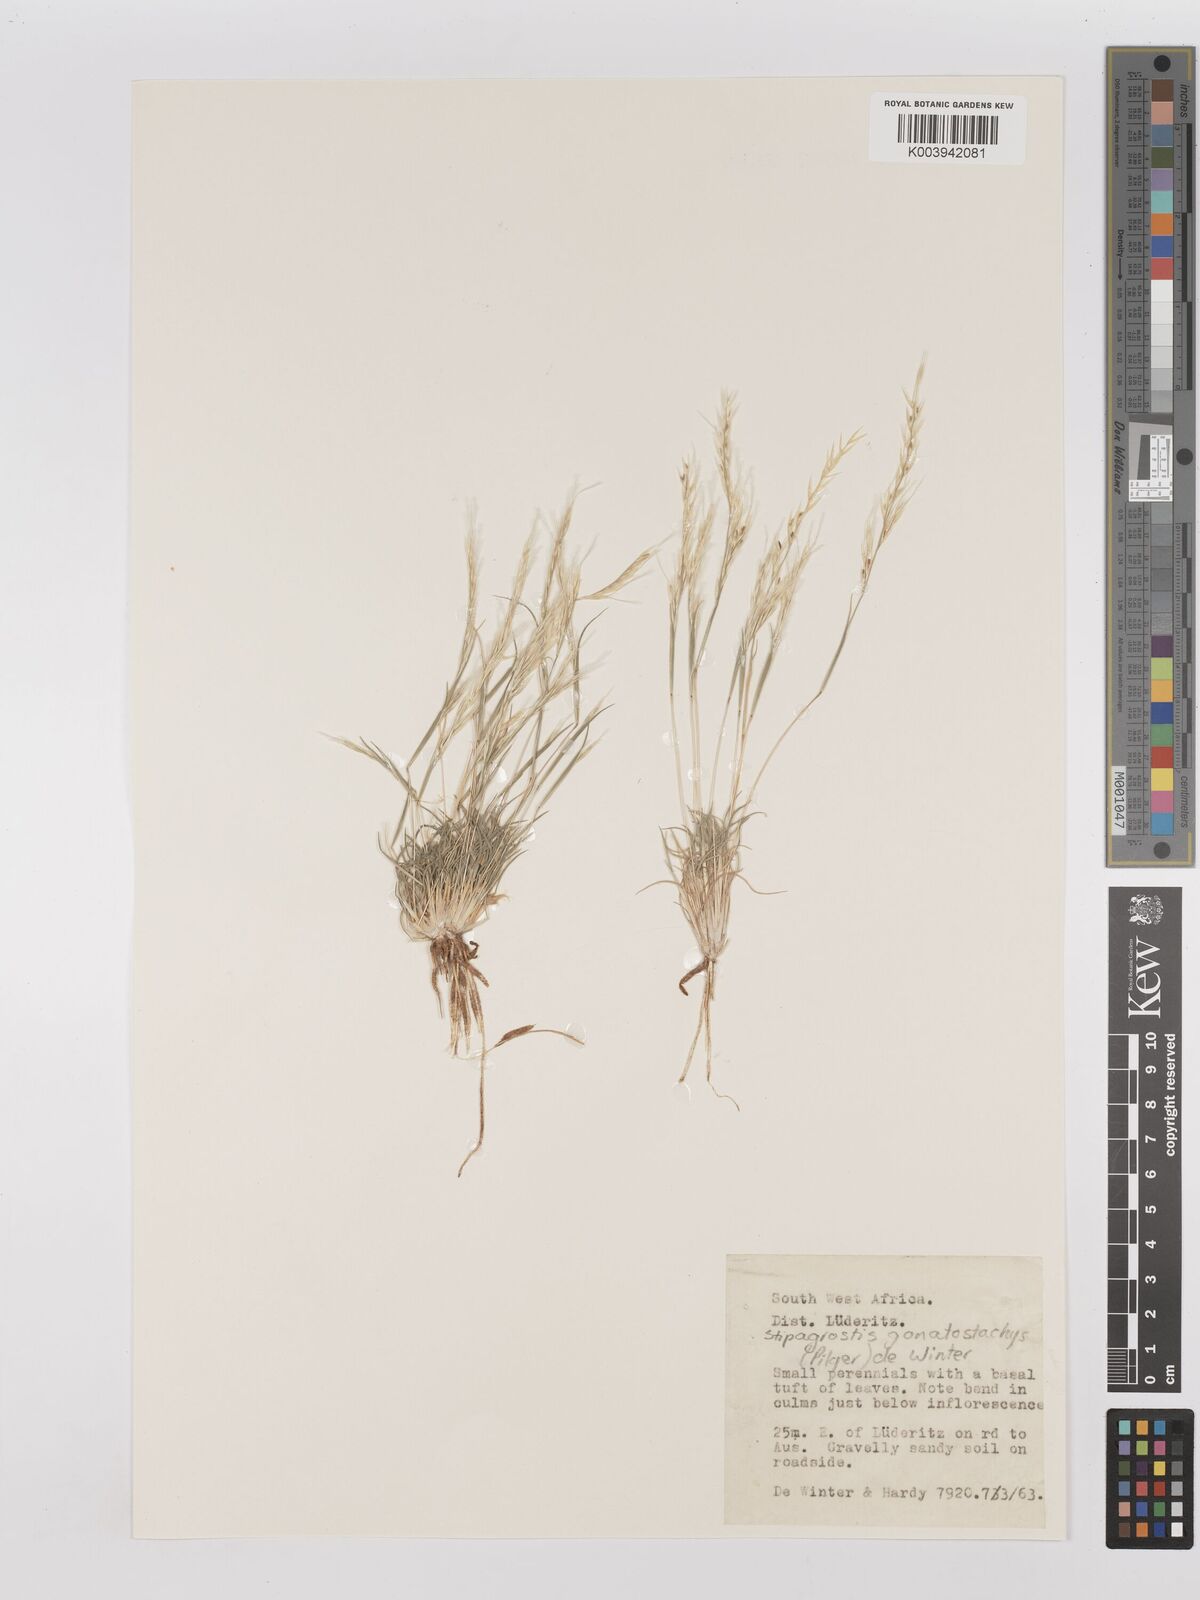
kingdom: Plantae
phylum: Tracheophyta
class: Liliopsida
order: Poales
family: Poaceae
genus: Stipagrostis
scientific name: Stipagrostis gonatostachys
